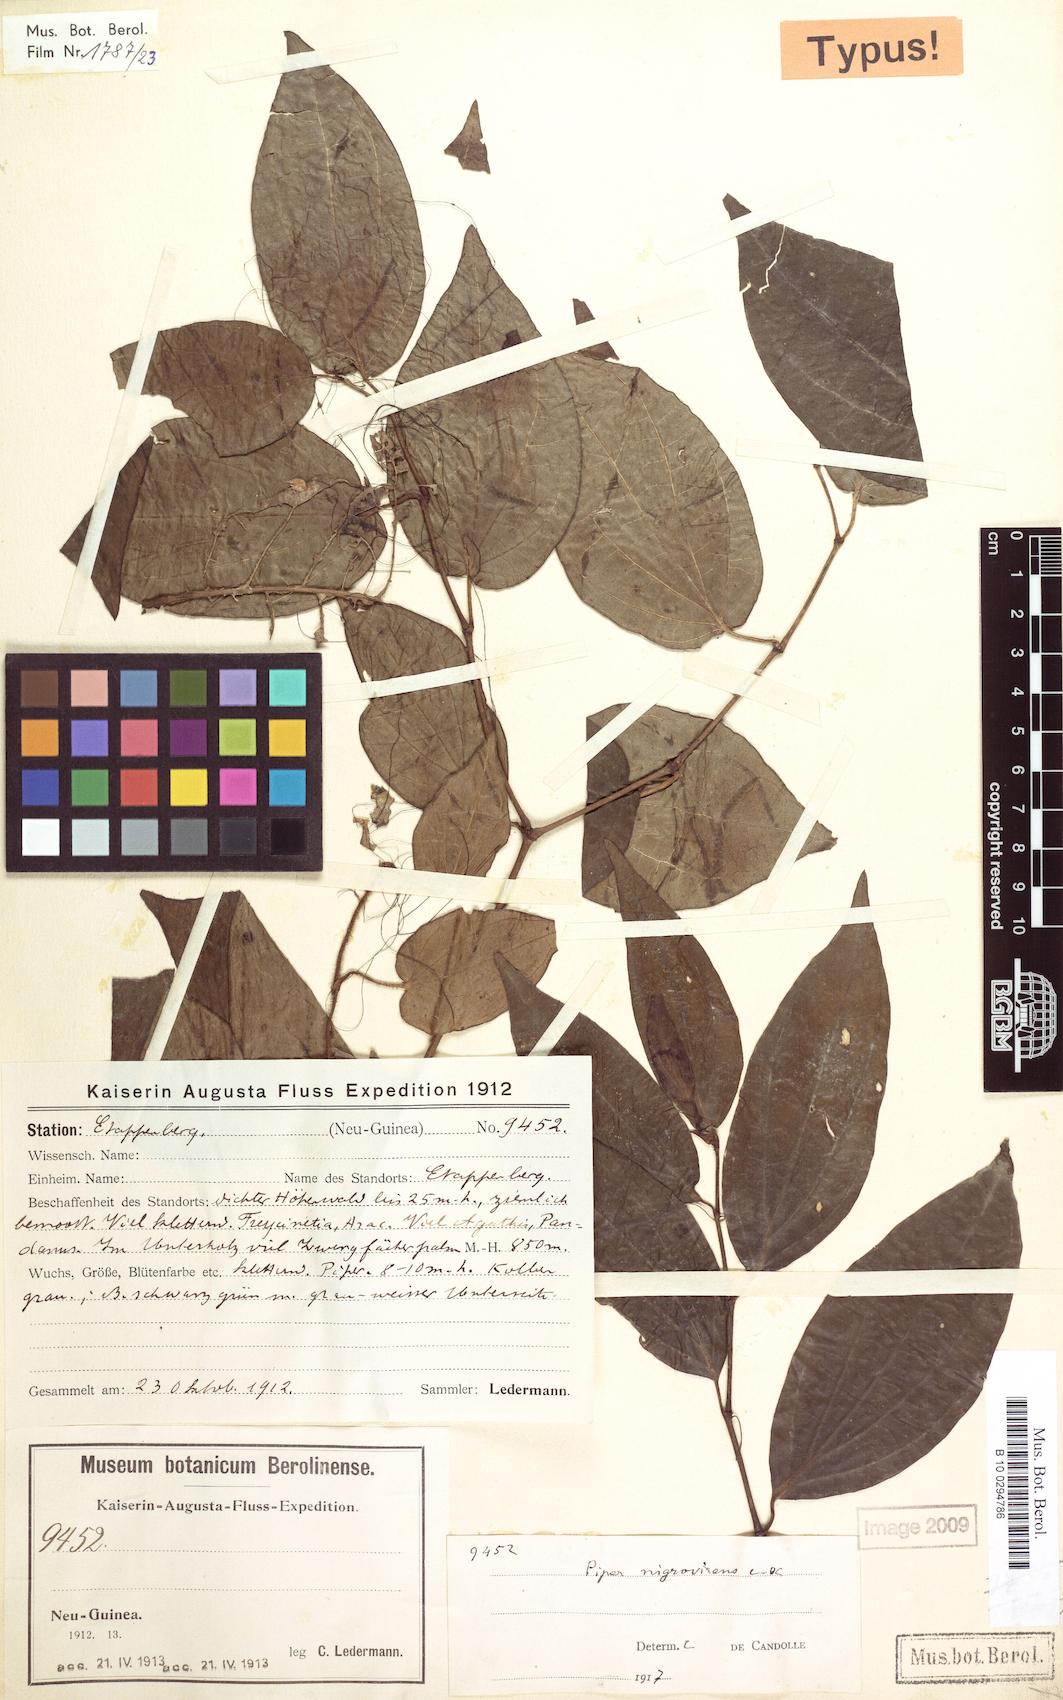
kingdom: Plantae
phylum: Tracheophyta
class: Magnoliopsida
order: Piperales
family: Piperaceae
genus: Piper
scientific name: Piper nigrovirens
